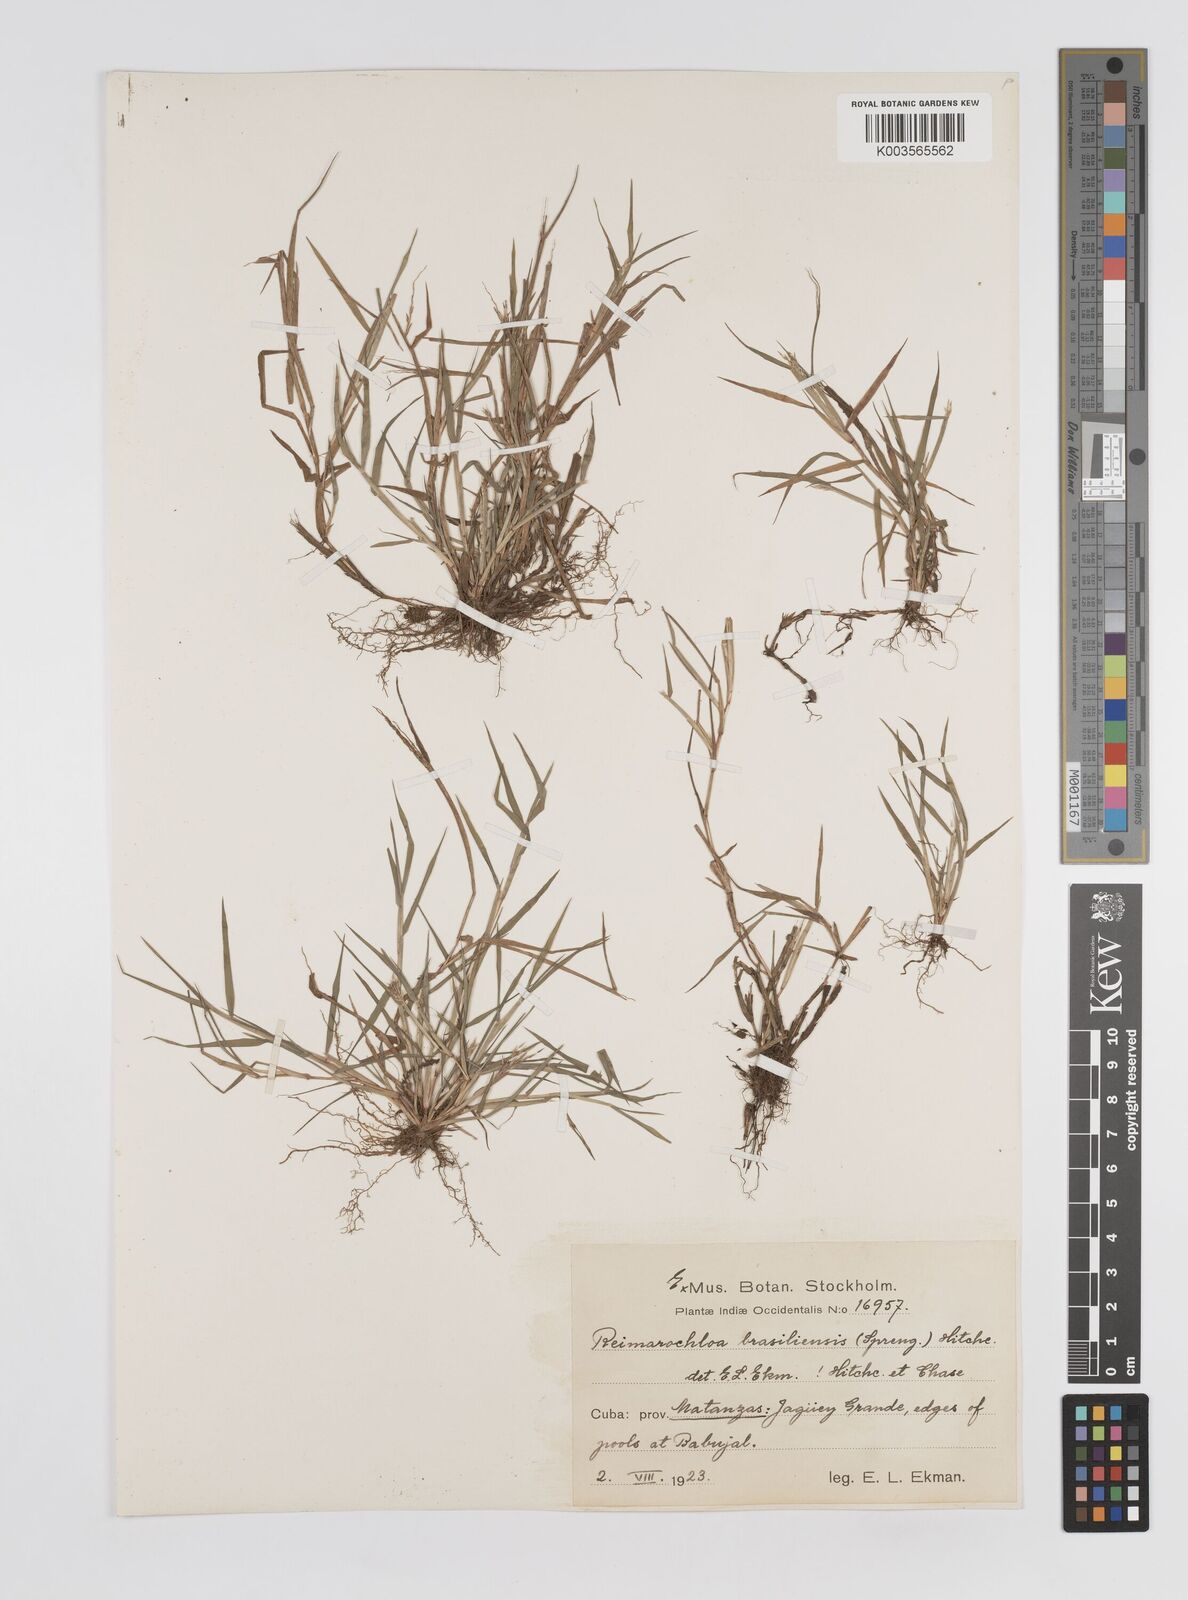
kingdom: Plantae
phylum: Tracheophyta
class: Liliopsida
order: Poales
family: Poaceae
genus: Paspalum
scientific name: Paspalum stagnophilum
